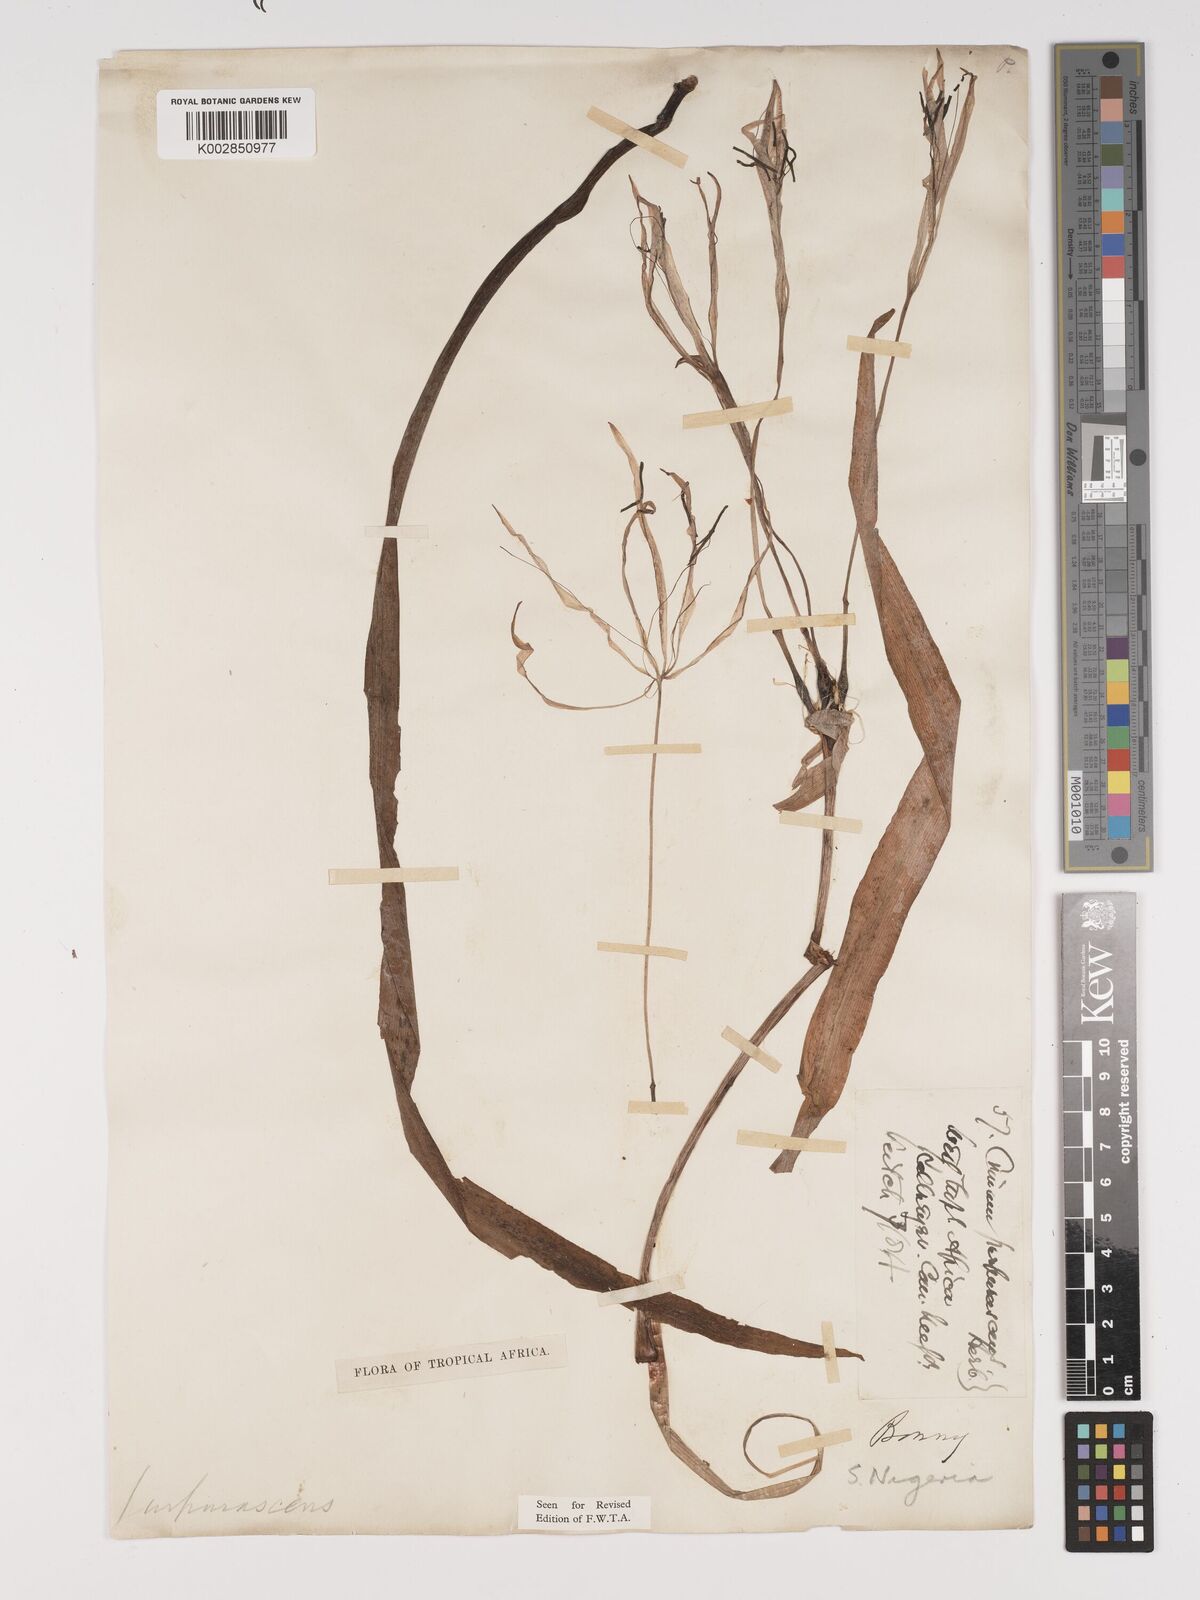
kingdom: Plantae
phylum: Tracheophyta
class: Liliopsida
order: Asparagales
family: Amaryllidaceae
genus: Crinum
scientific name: Crinum purpurascens
